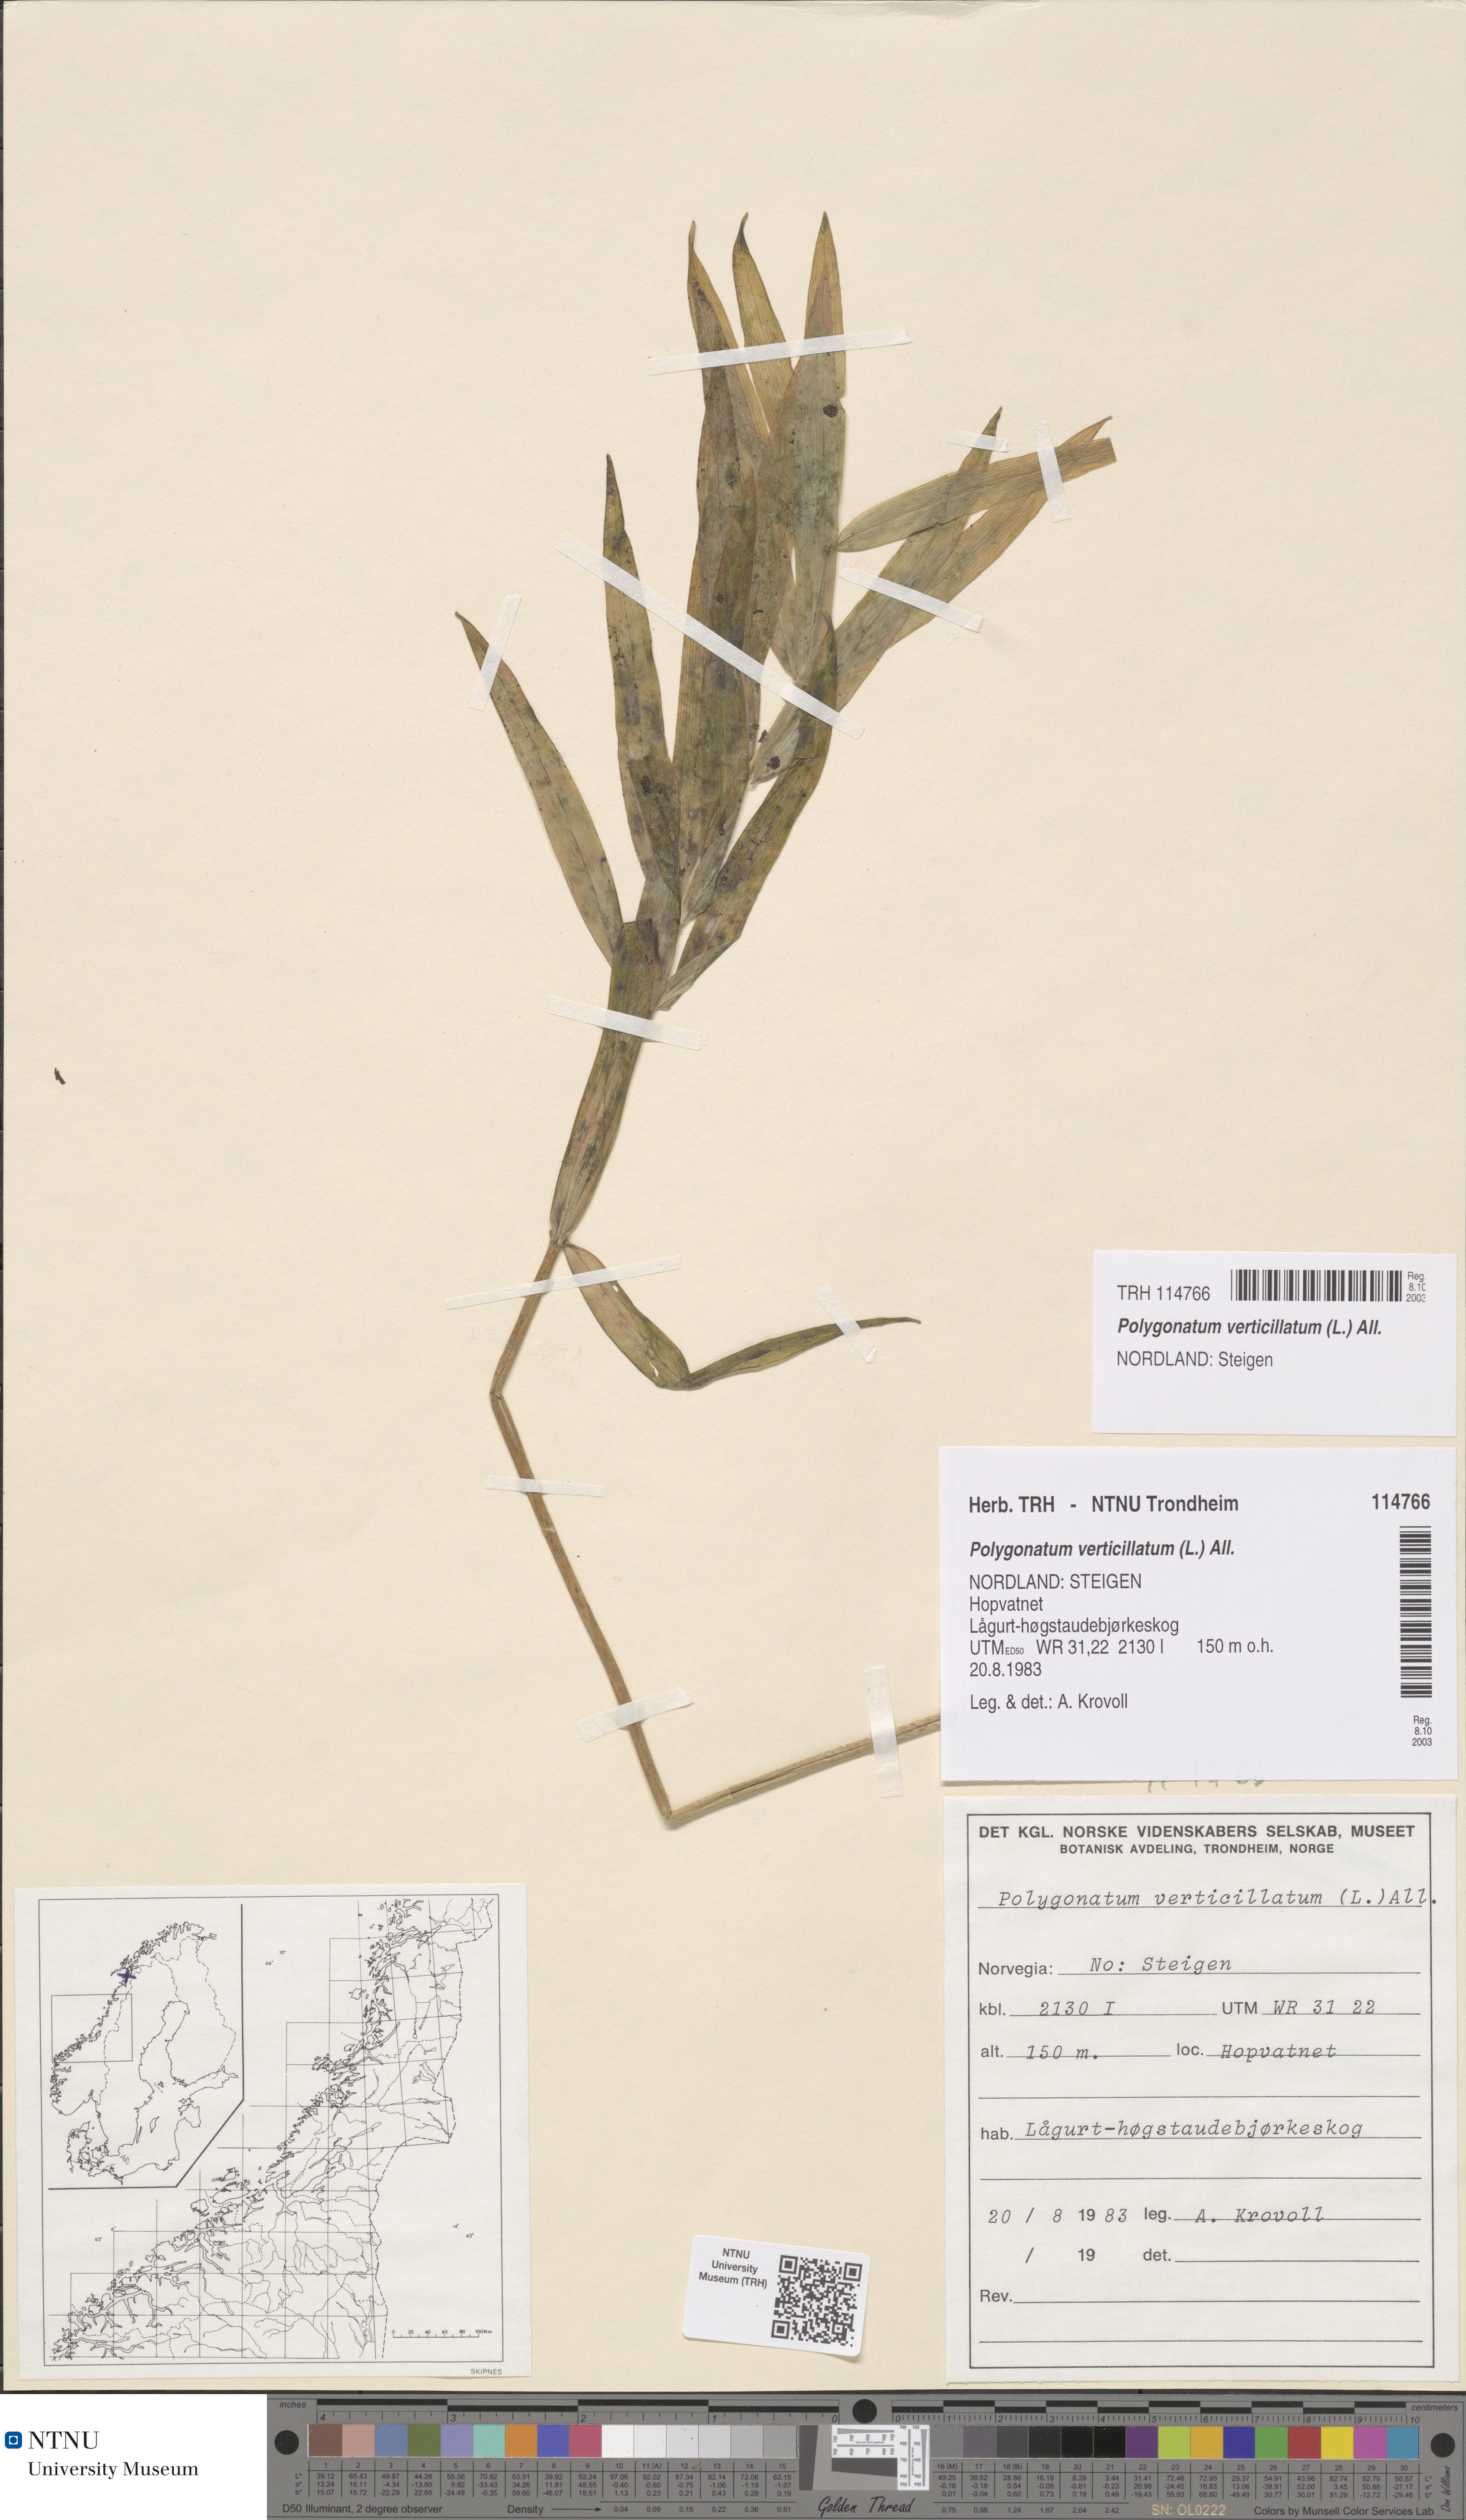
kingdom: Plantae
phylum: Tracheophyta
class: Liliopsida
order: Asparagales
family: Asparagaceae
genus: Polygonatum
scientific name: Polygonatum verticillatum
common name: Whorled solomon's-seal
